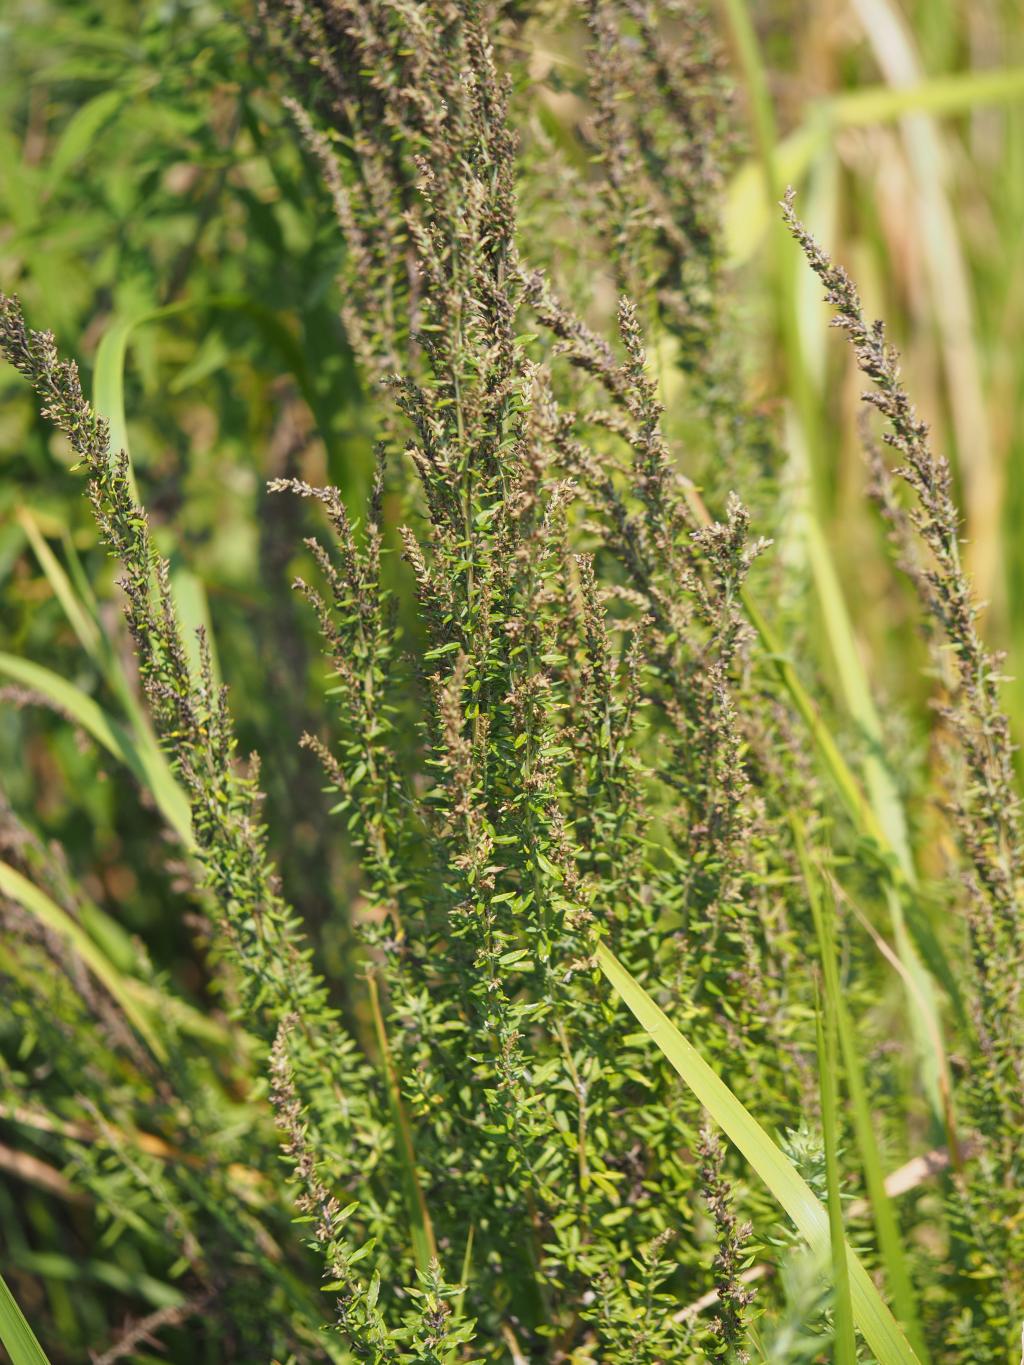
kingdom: Plantae
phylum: Tracheophyta
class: Magnoliopsida
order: Asterales
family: Asteraceae
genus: Artemisia
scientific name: Artemisia lancea
